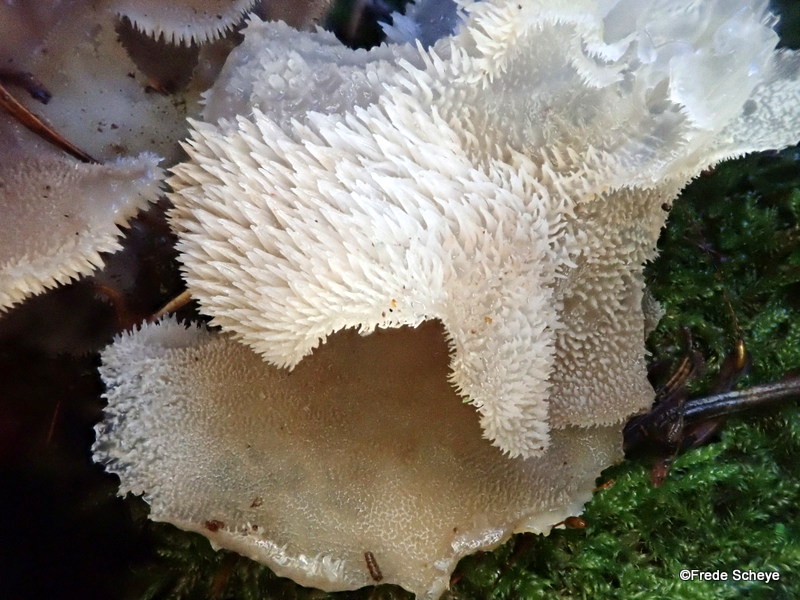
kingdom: Fungi
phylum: Basidiomycota
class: Agaricomycetes
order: Auriculariales
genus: Pseudohydnum
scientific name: Pseudohydnum gelatinosum
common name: bævretand
